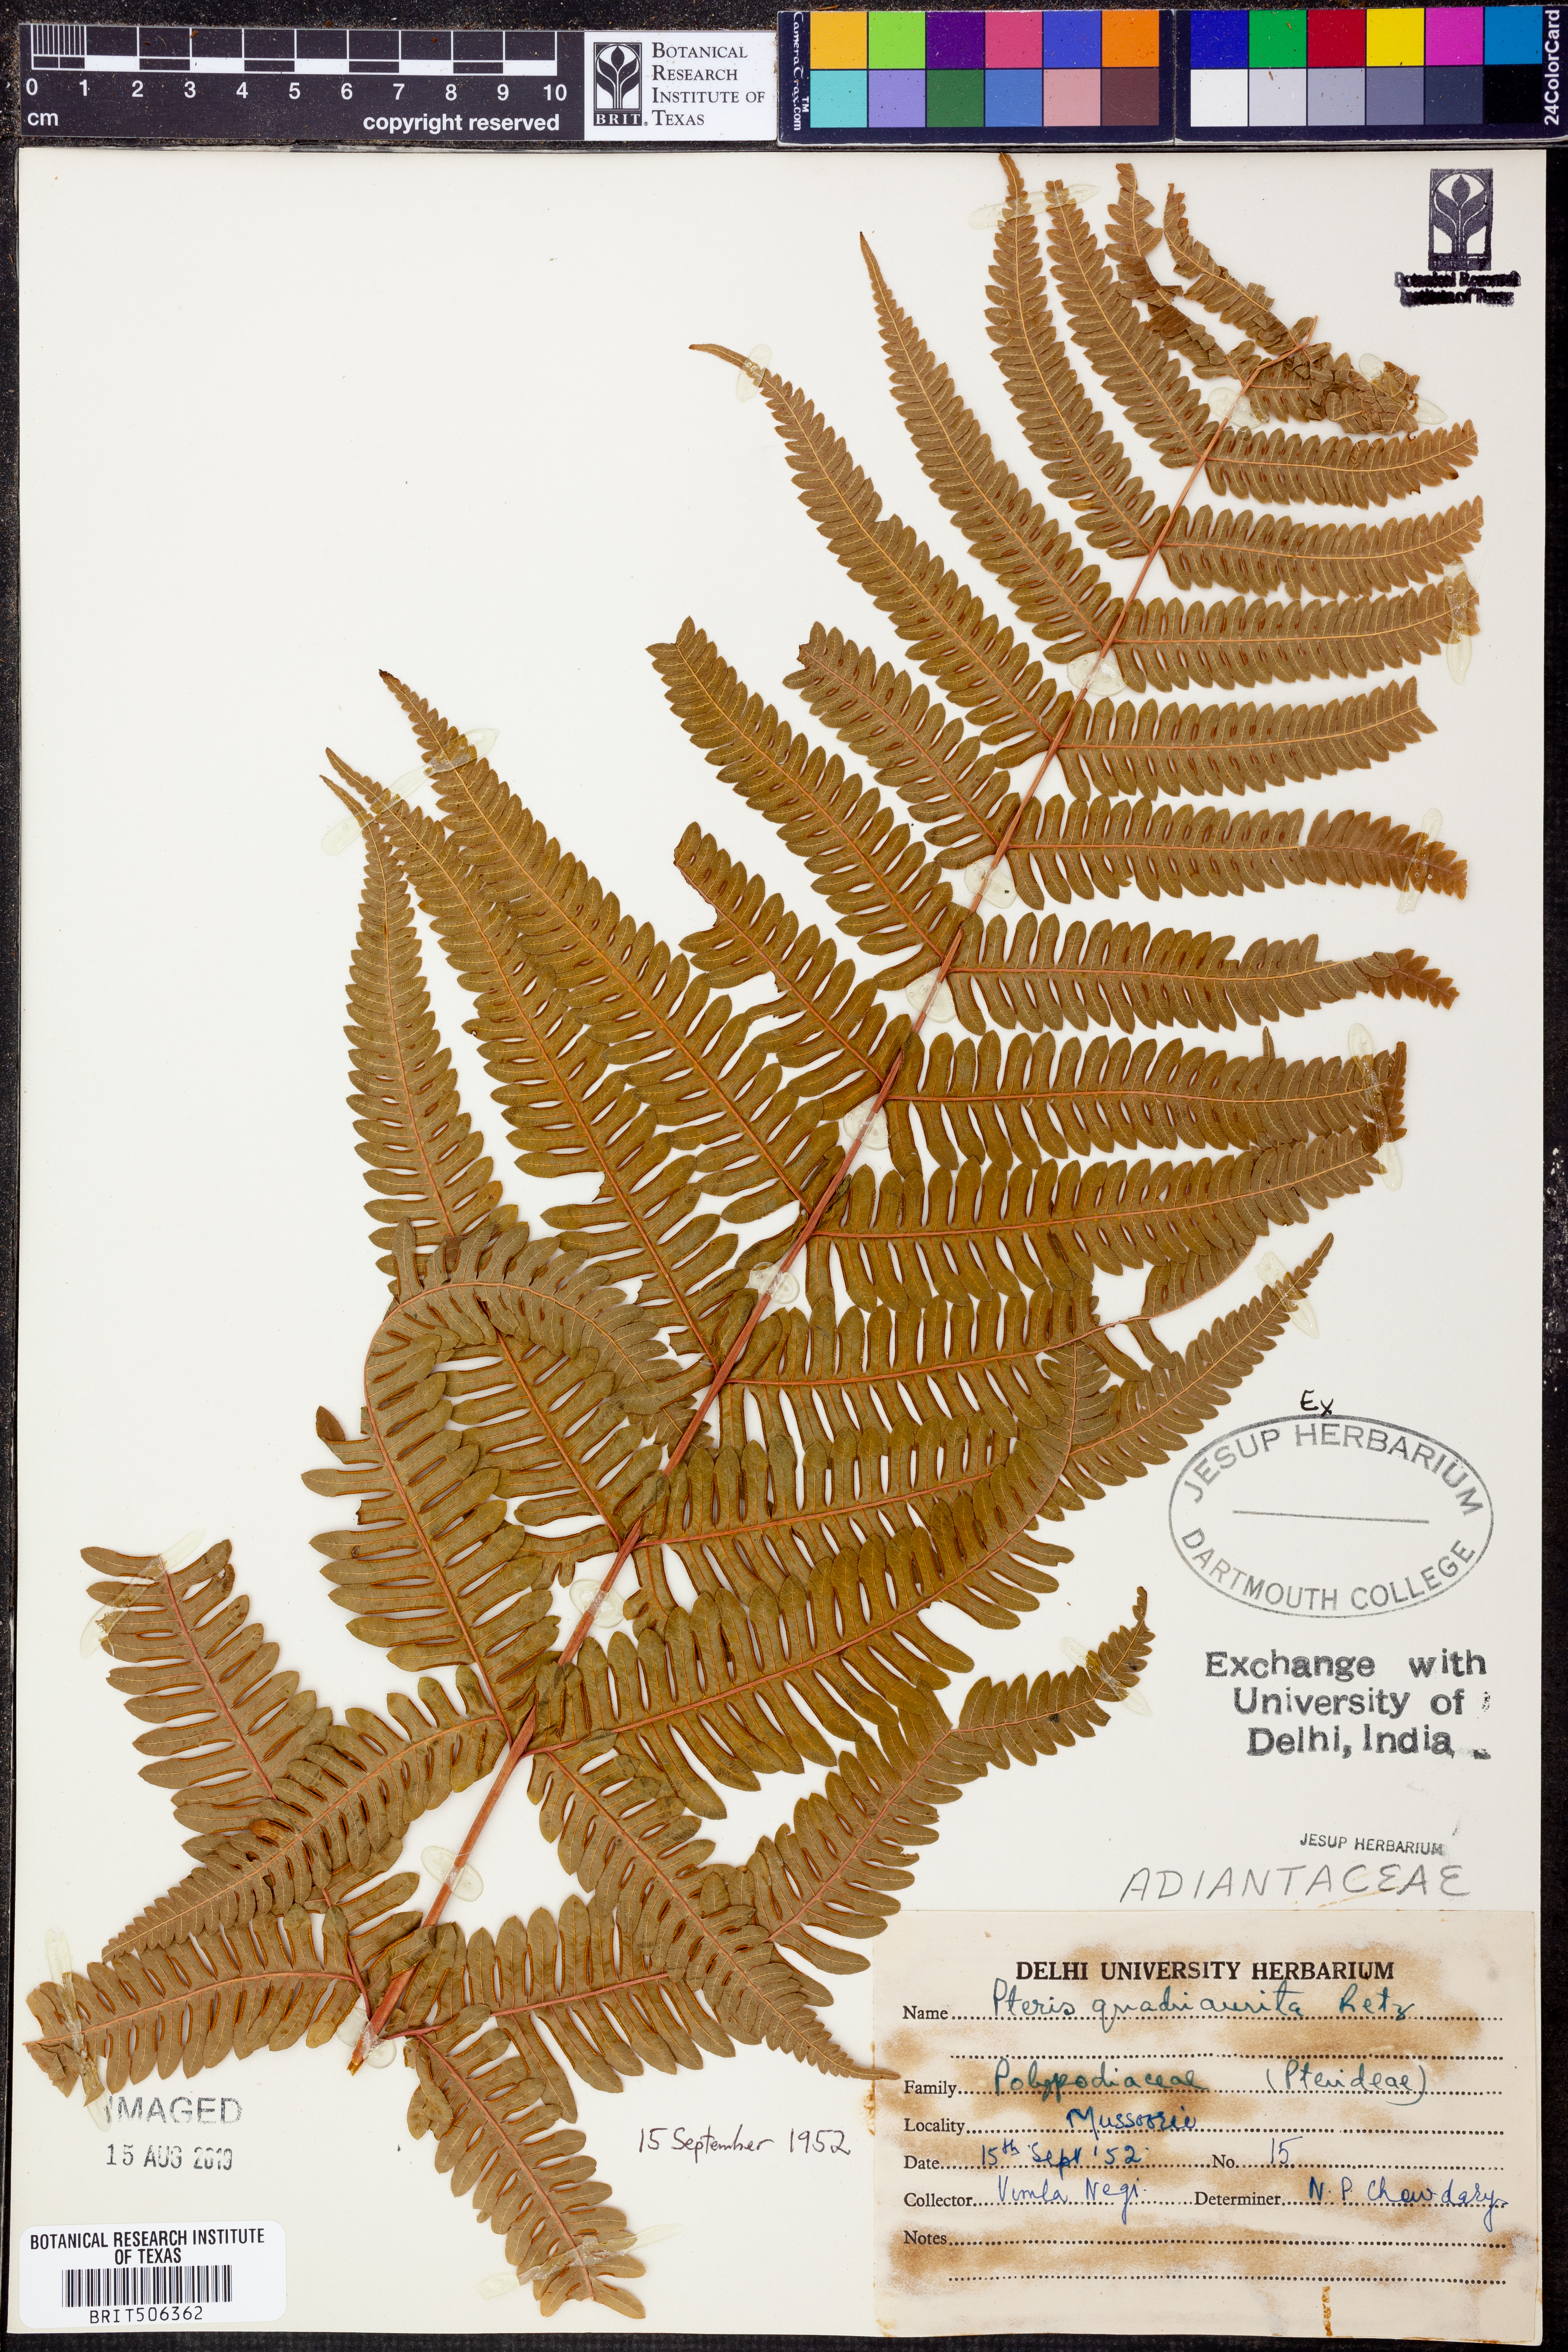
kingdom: Plantae
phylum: Tracheophyta
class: Polypodiopsida
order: Polypodiales
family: Pteridaceae
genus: Pteris
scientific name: Pteris quadriaurita
